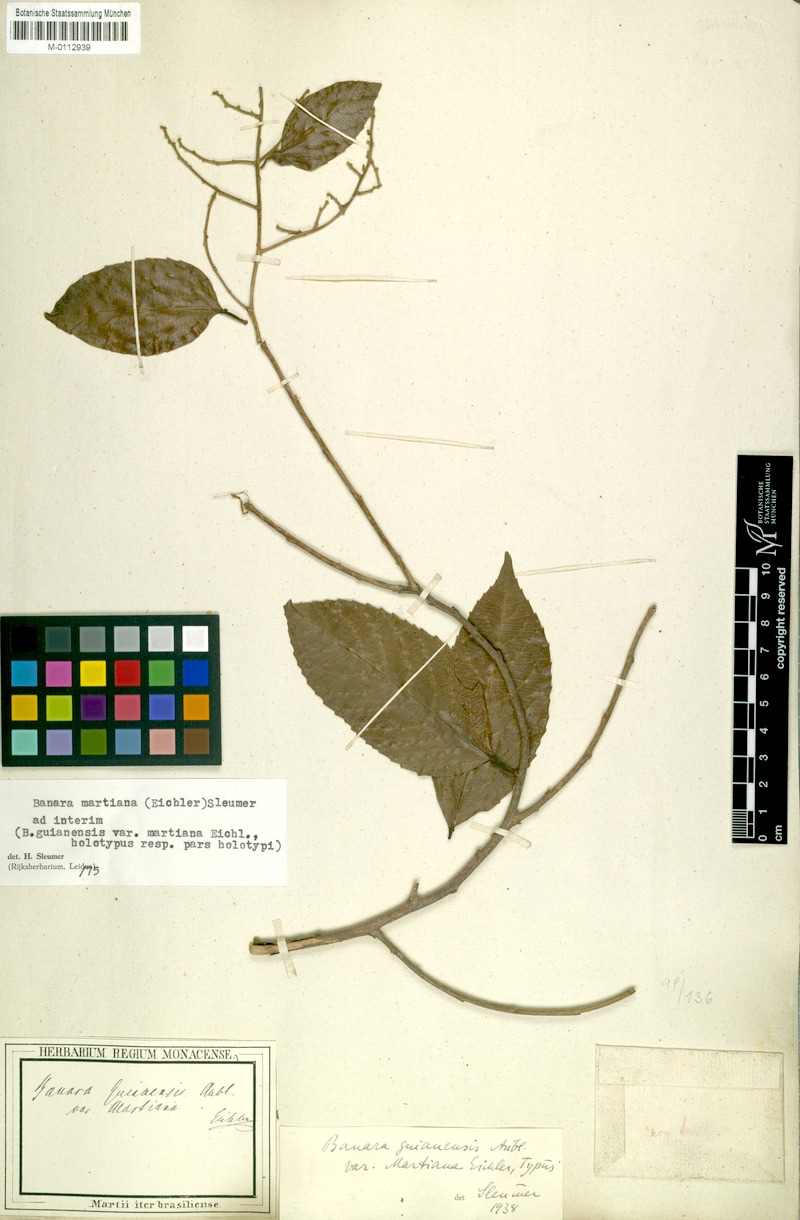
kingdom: Plantae
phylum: Tracheophyta
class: Magnoliopsida
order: Malpighiales
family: Salicaceae
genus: Banara
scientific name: Banara arguta
